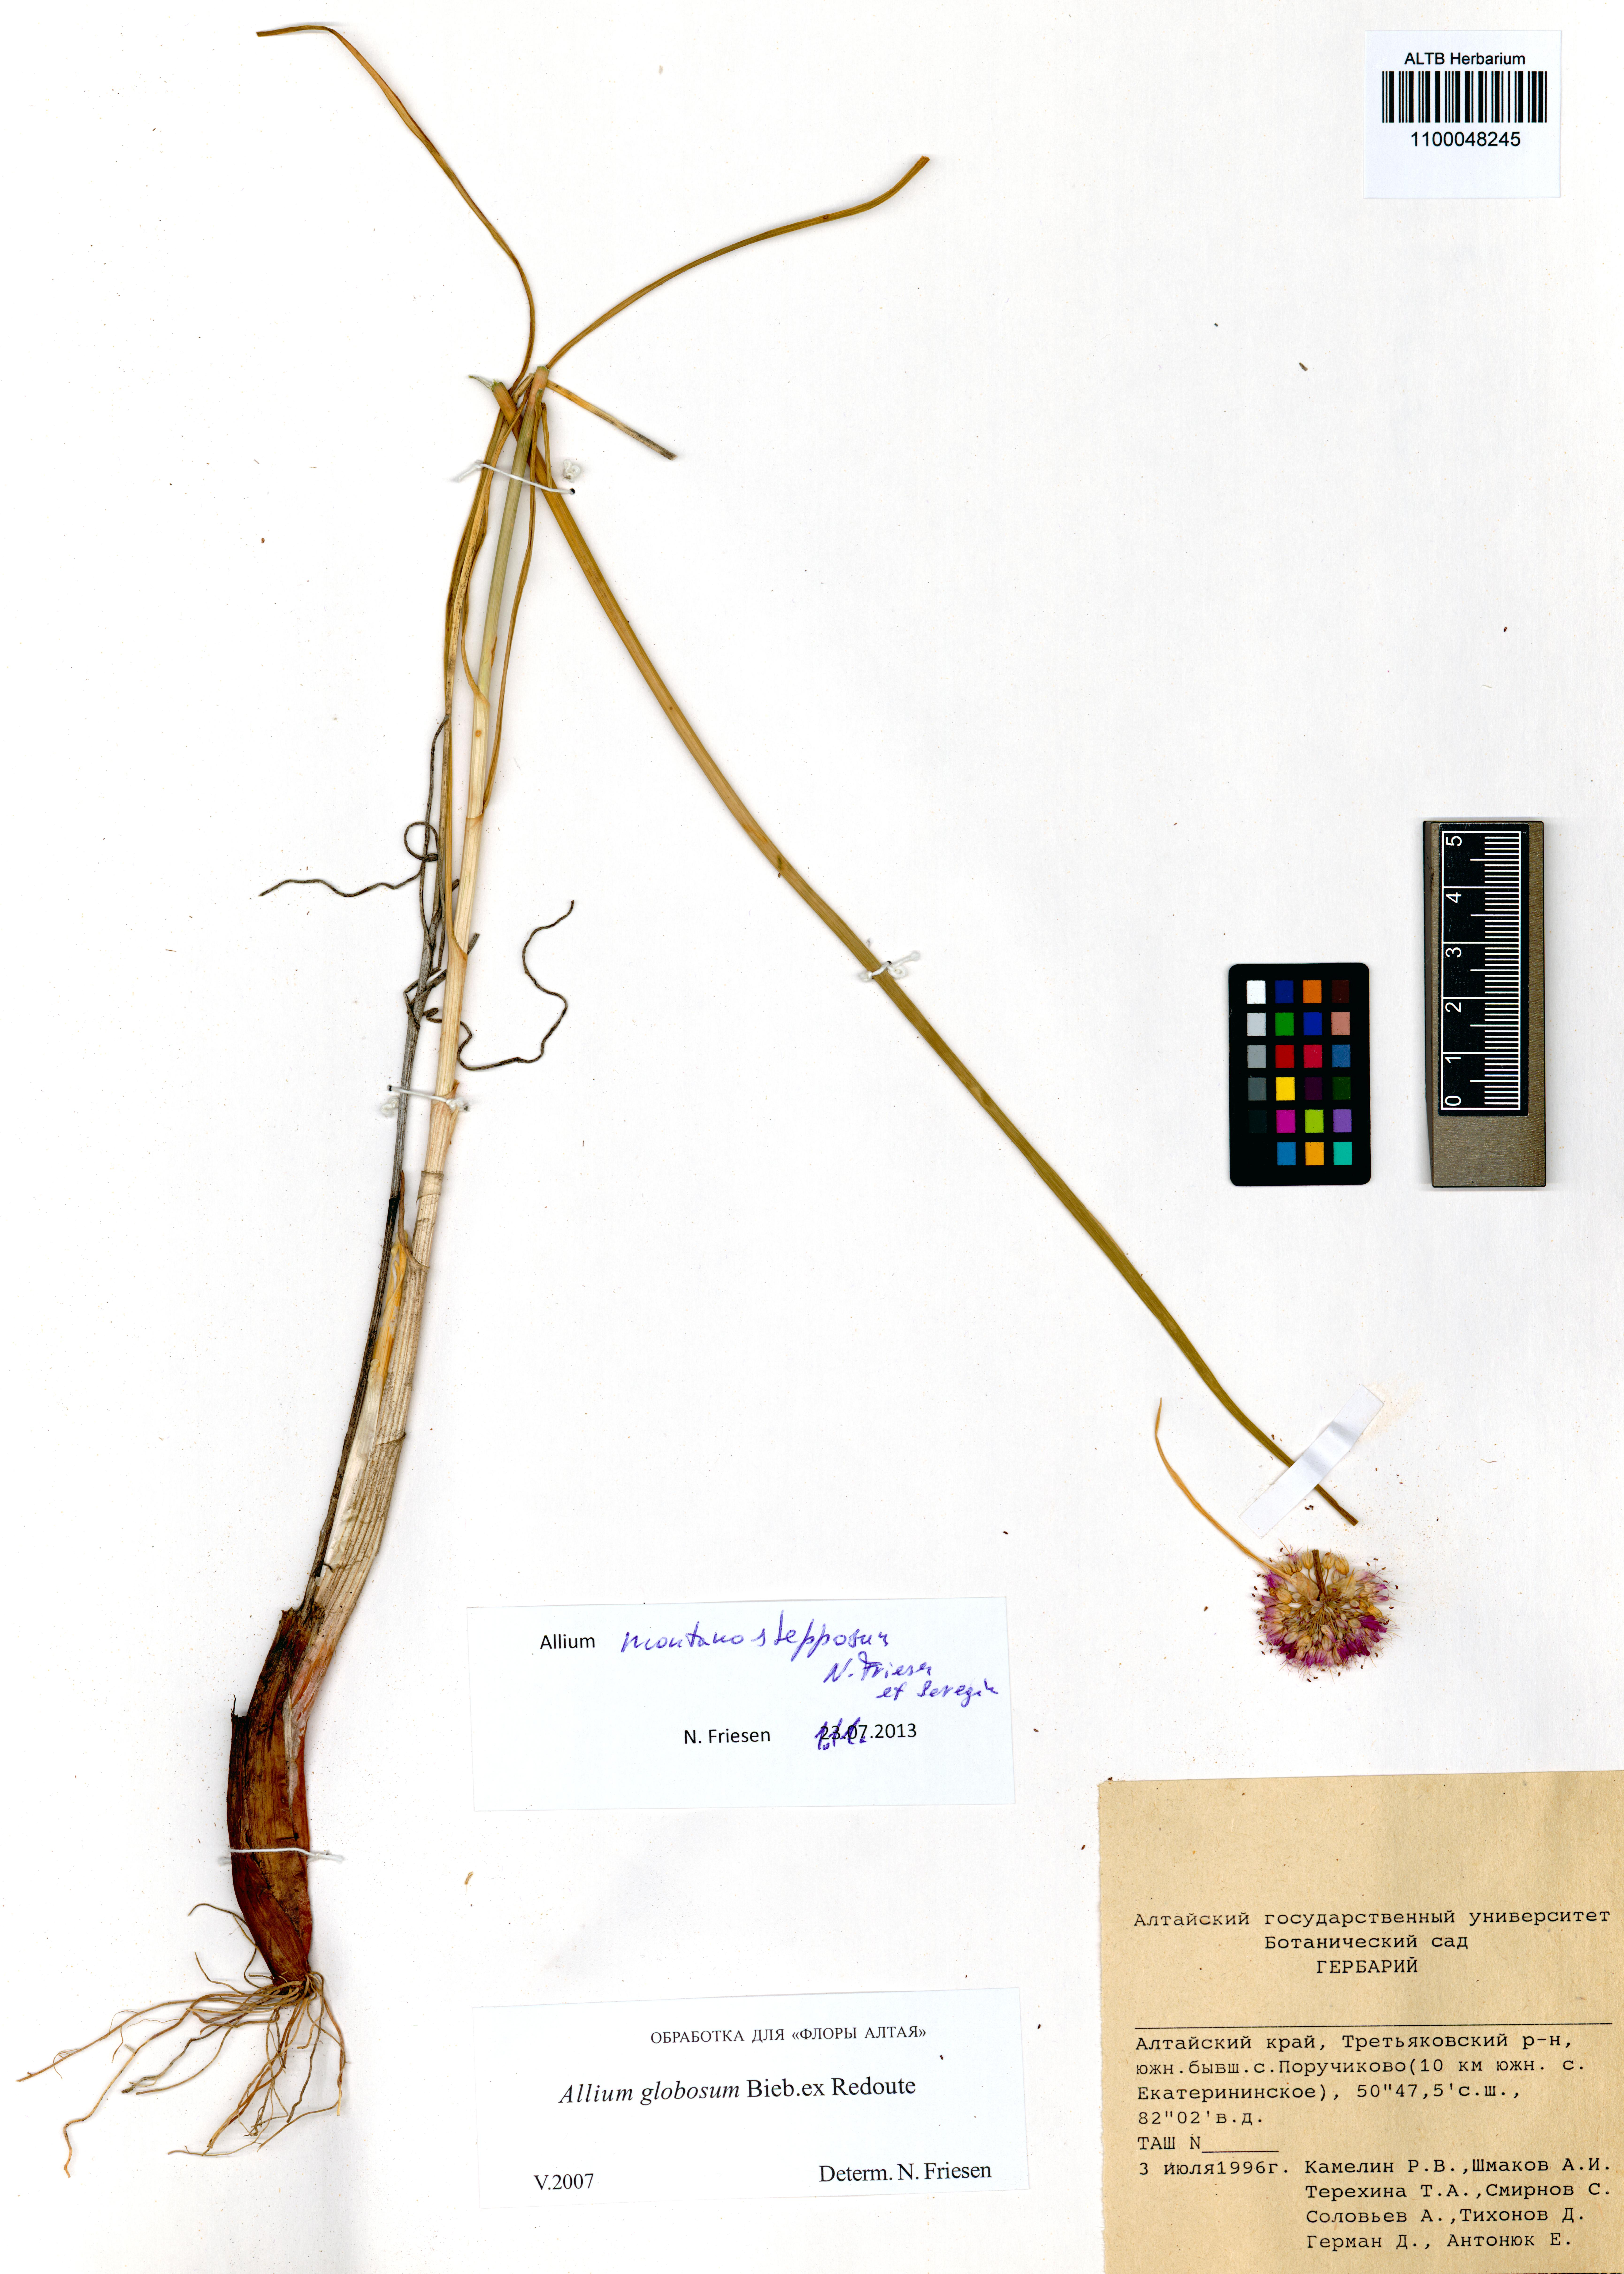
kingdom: Plantae
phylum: Tracheophyta
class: Liliopsida
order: Asparagales
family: Amaryllidaceae
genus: Allium
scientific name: Allium montanostepposum
